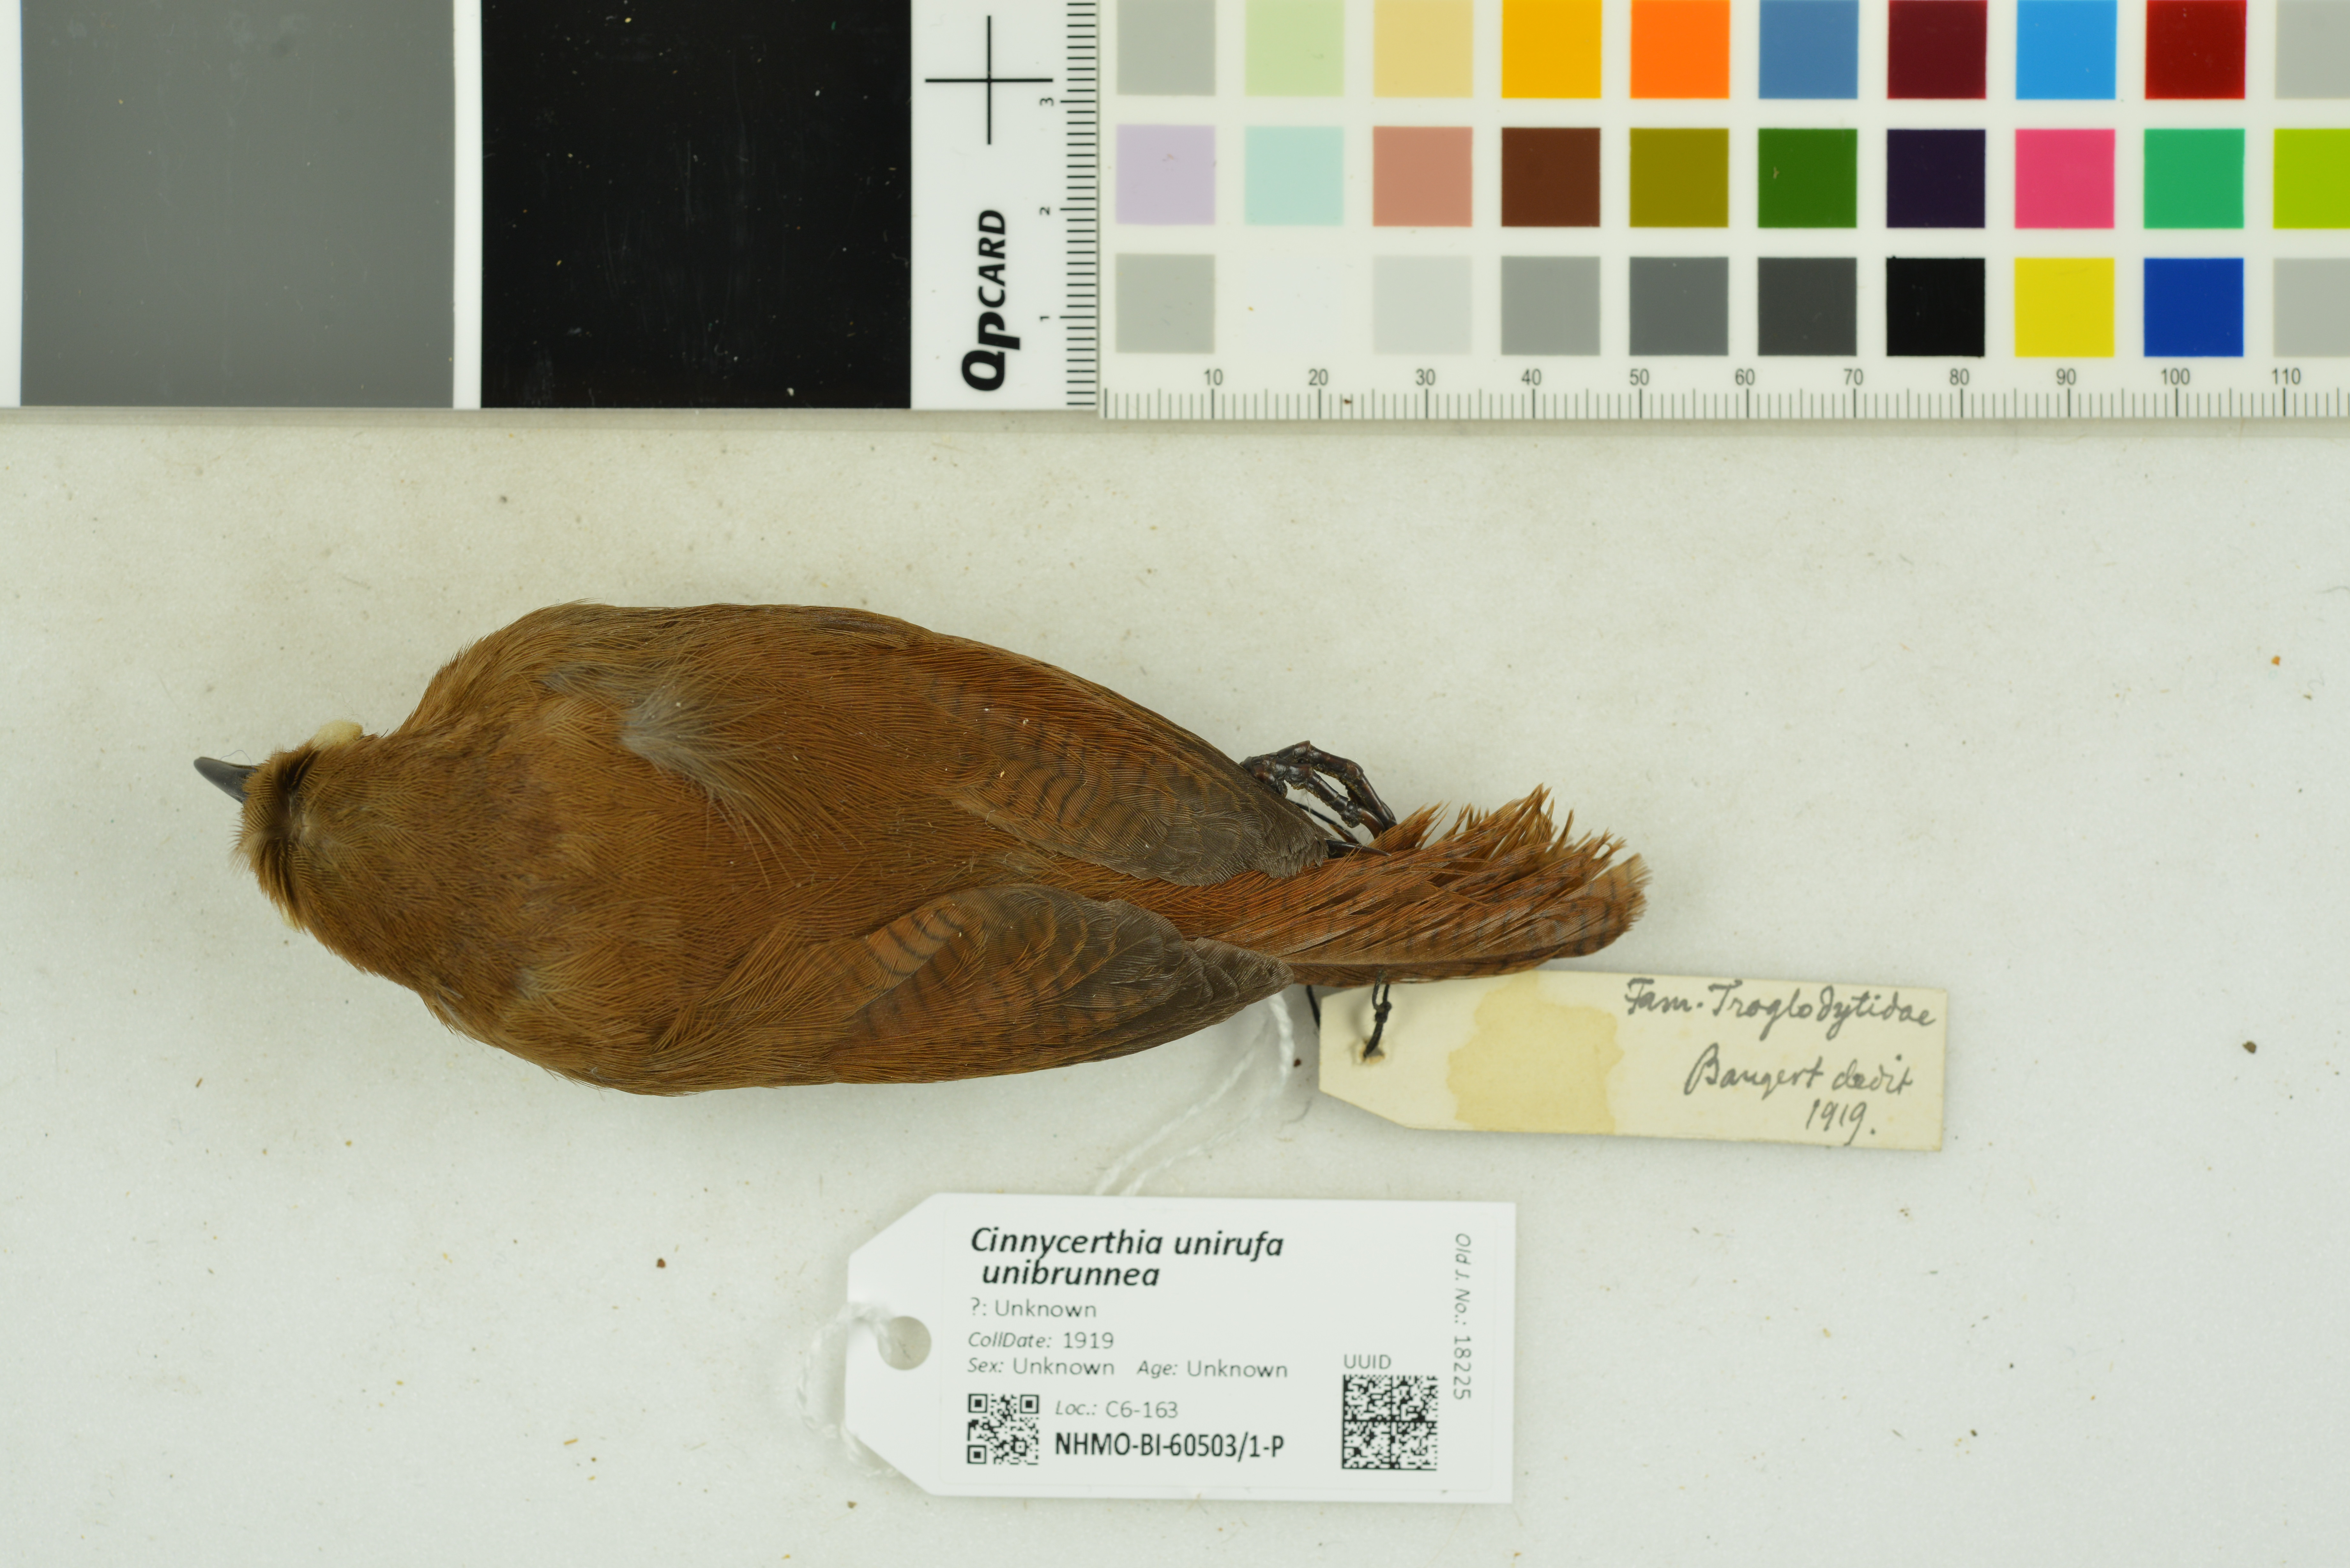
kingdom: Animalia
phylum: Chordata
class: Aves
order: Passeriformes
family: Troglodytidae
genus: Cinnycerthia
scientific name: Cinnycerthia unirufa
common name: Rufous wren
